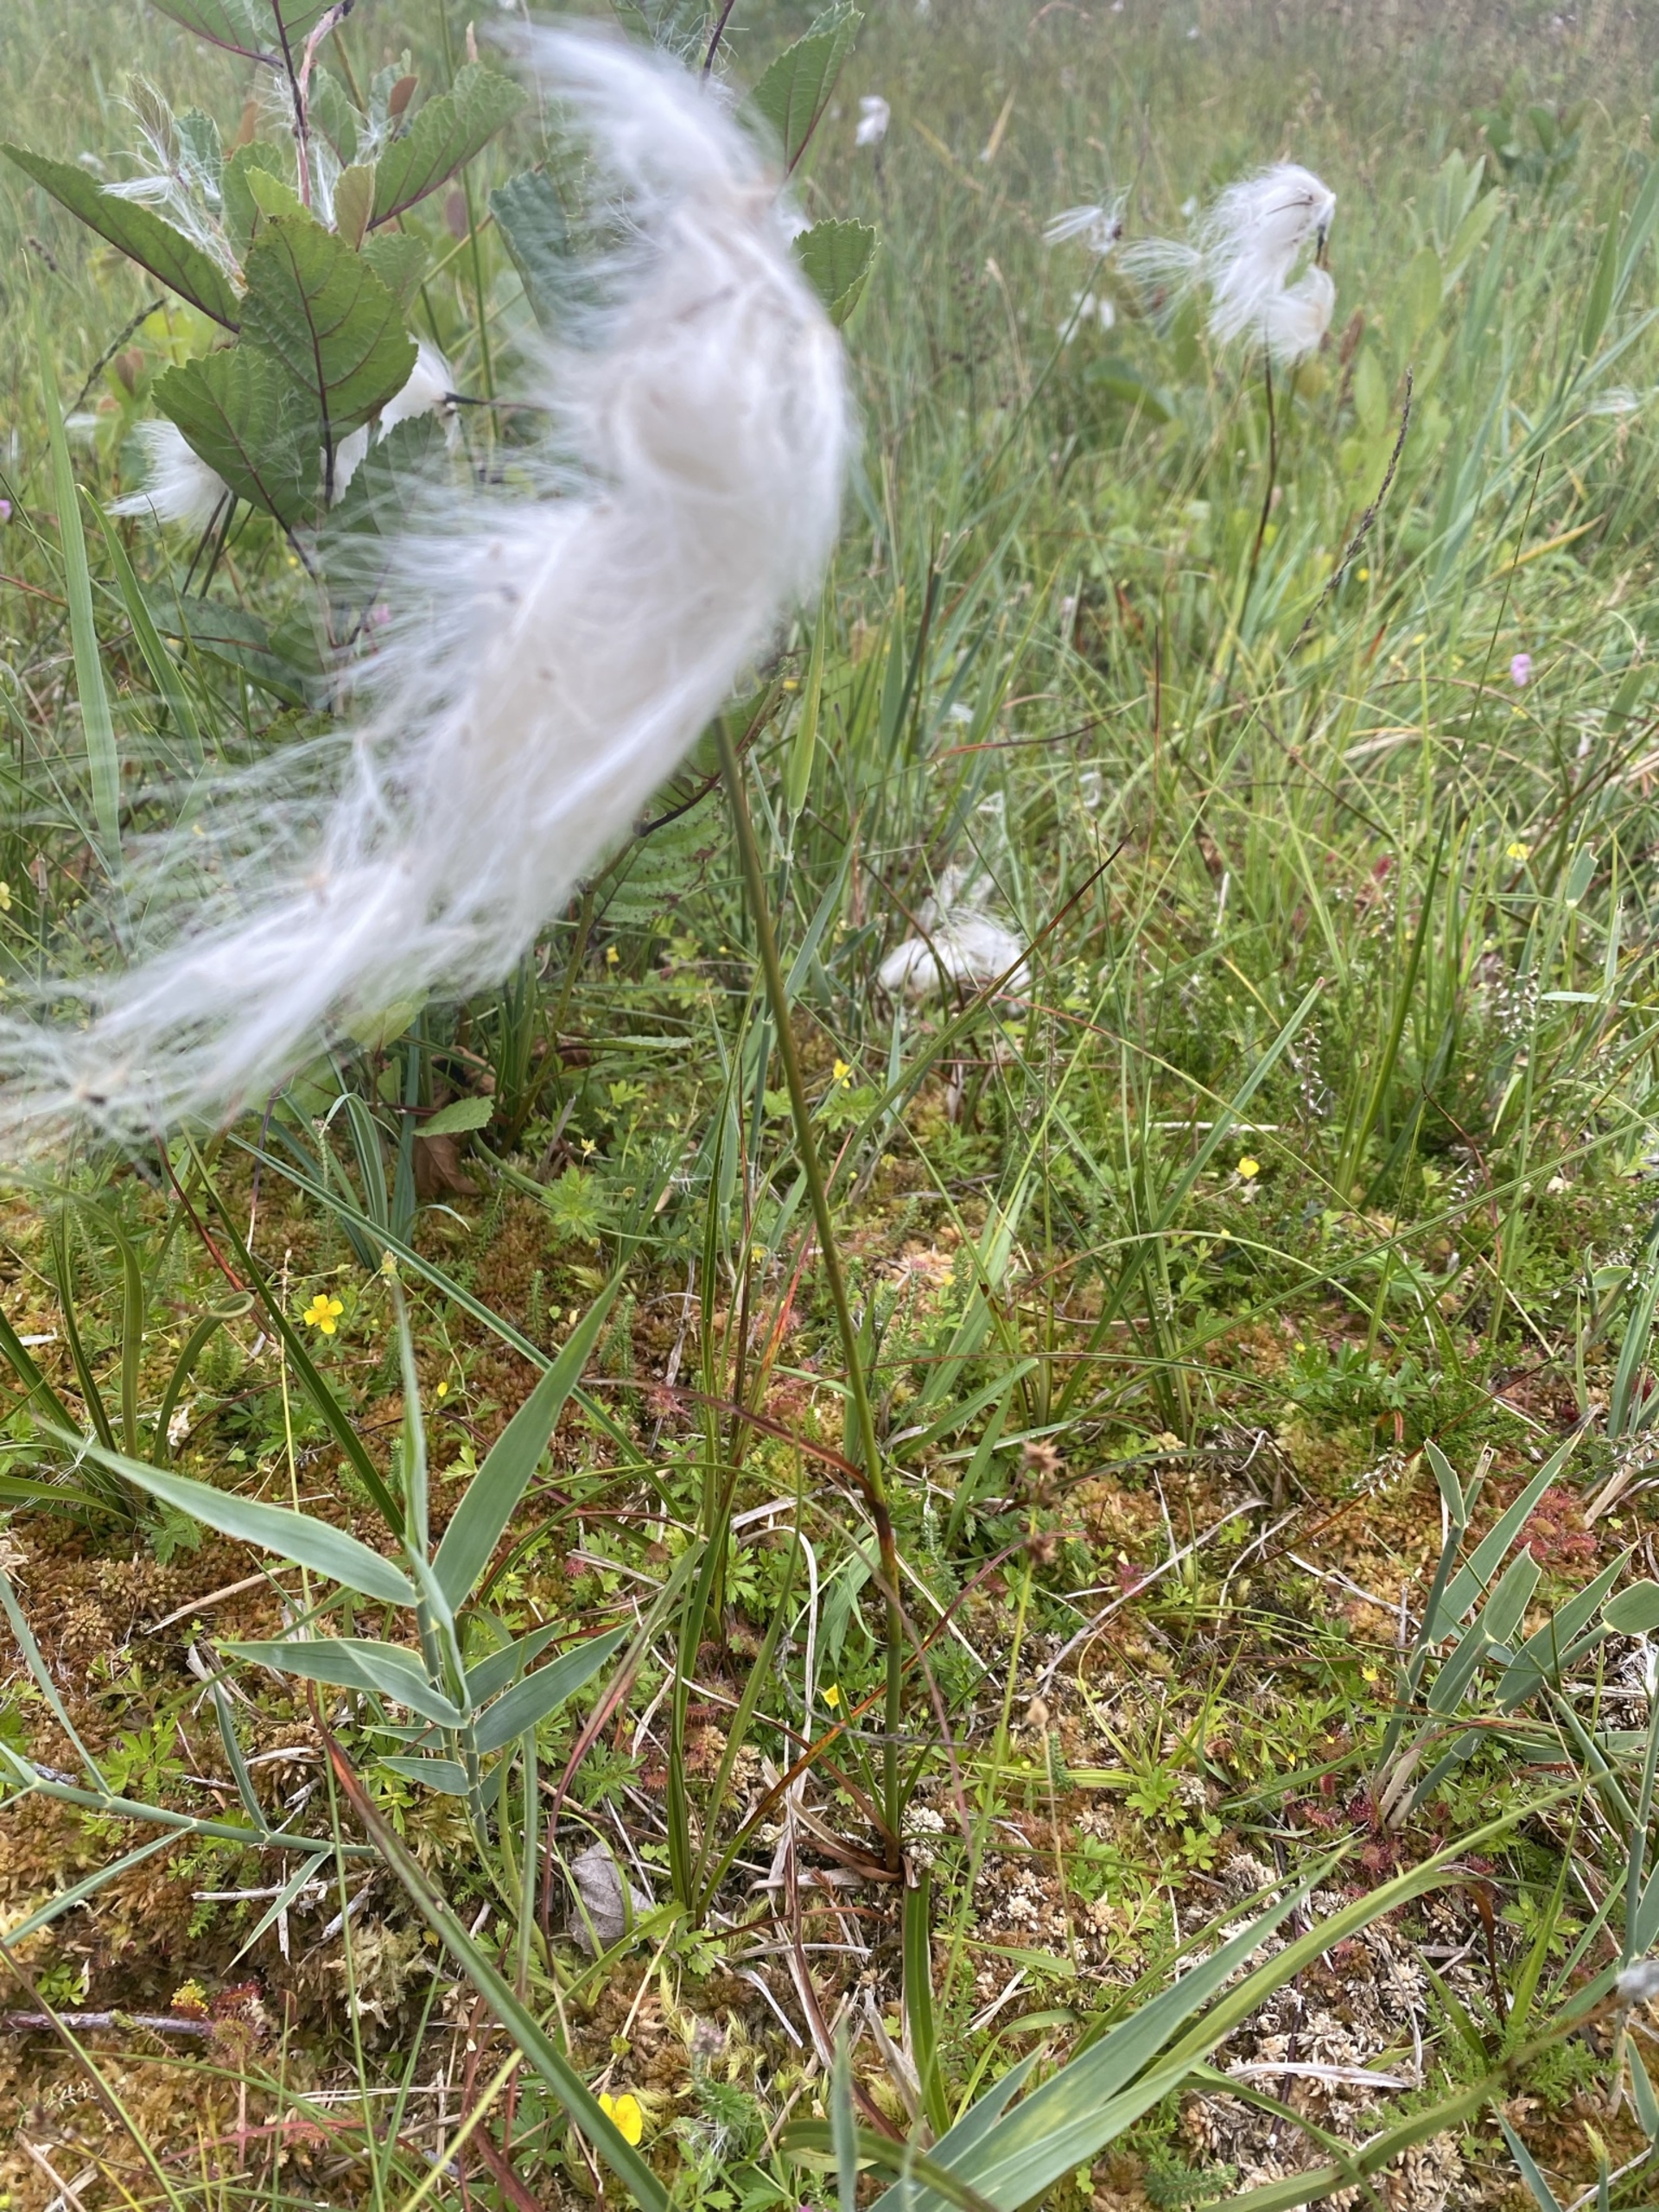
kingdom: Plantae
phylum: Tracheophyta
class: Liliopsida
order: Poales
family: Cyperaceae
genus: Eriophorum
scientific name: Eriophorum angustifolium
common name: Smalbladet kæruld
